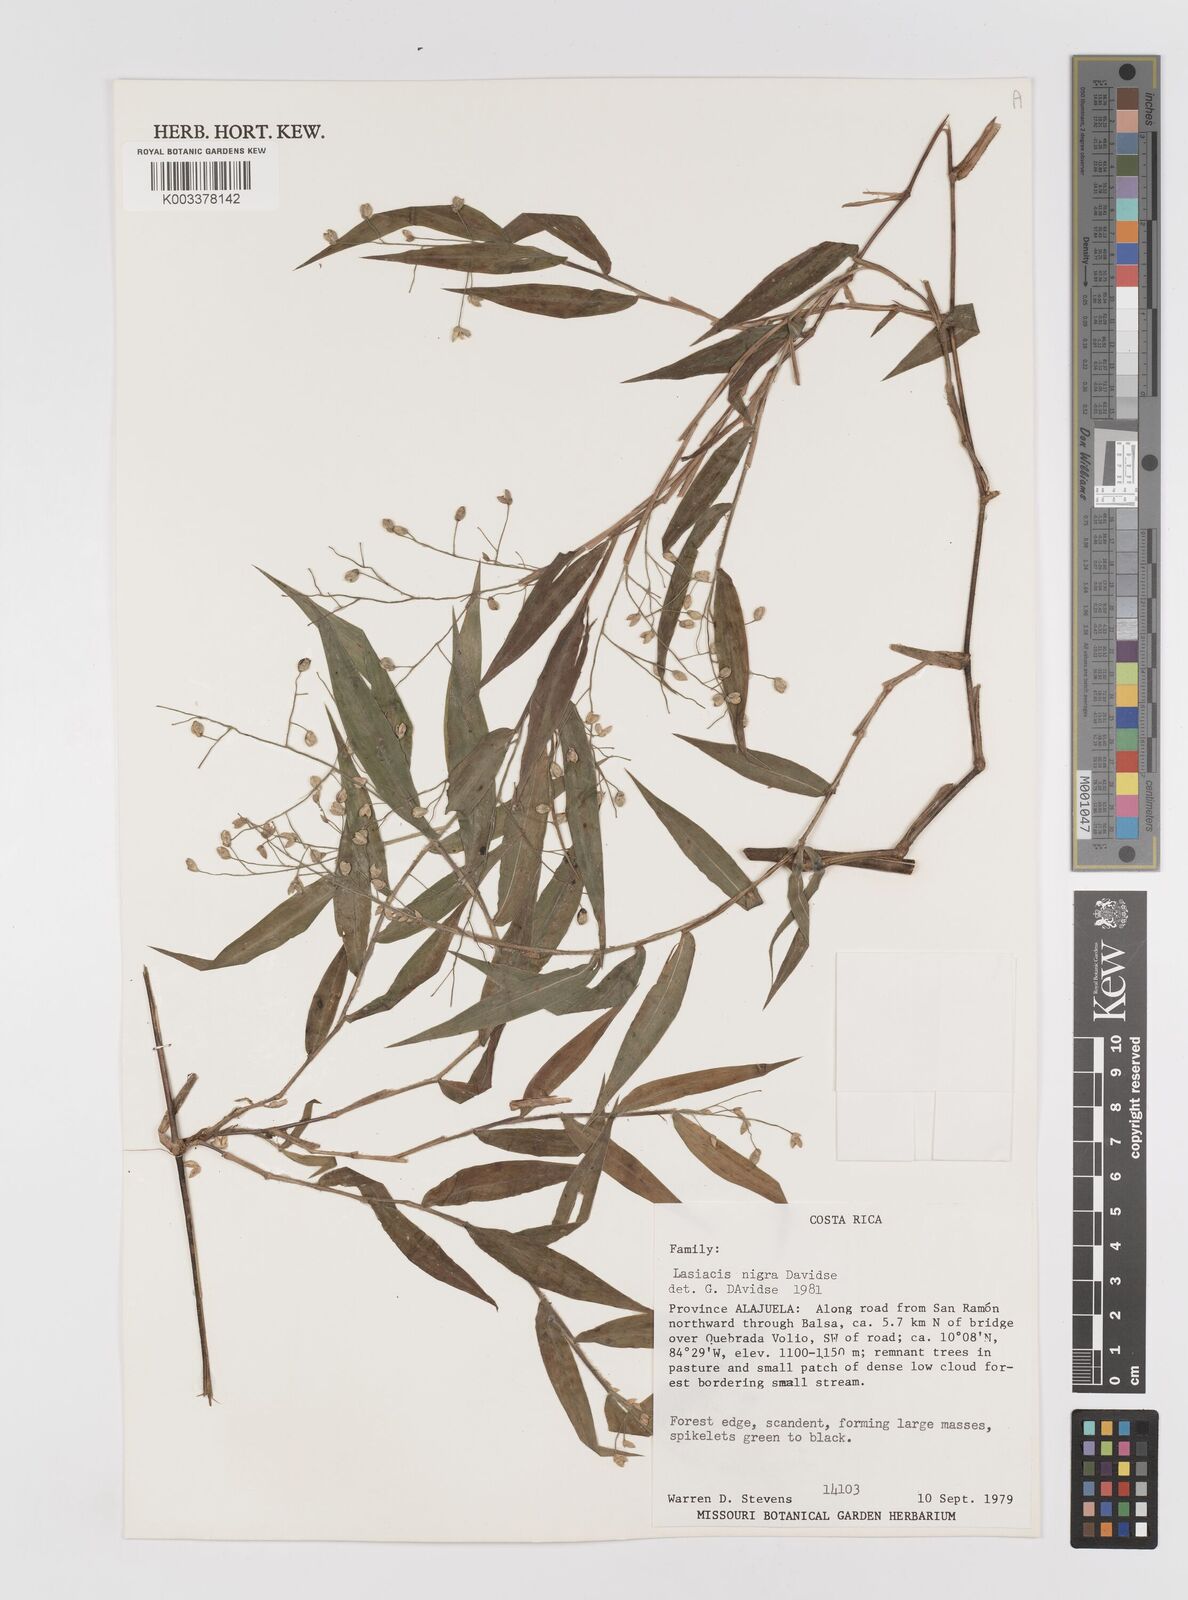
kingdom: Plantae
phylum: Tracheophyta
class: Liliopsida
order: Poales
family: Poaceae
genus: Lasiacis
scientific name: Lasiacis nigra
